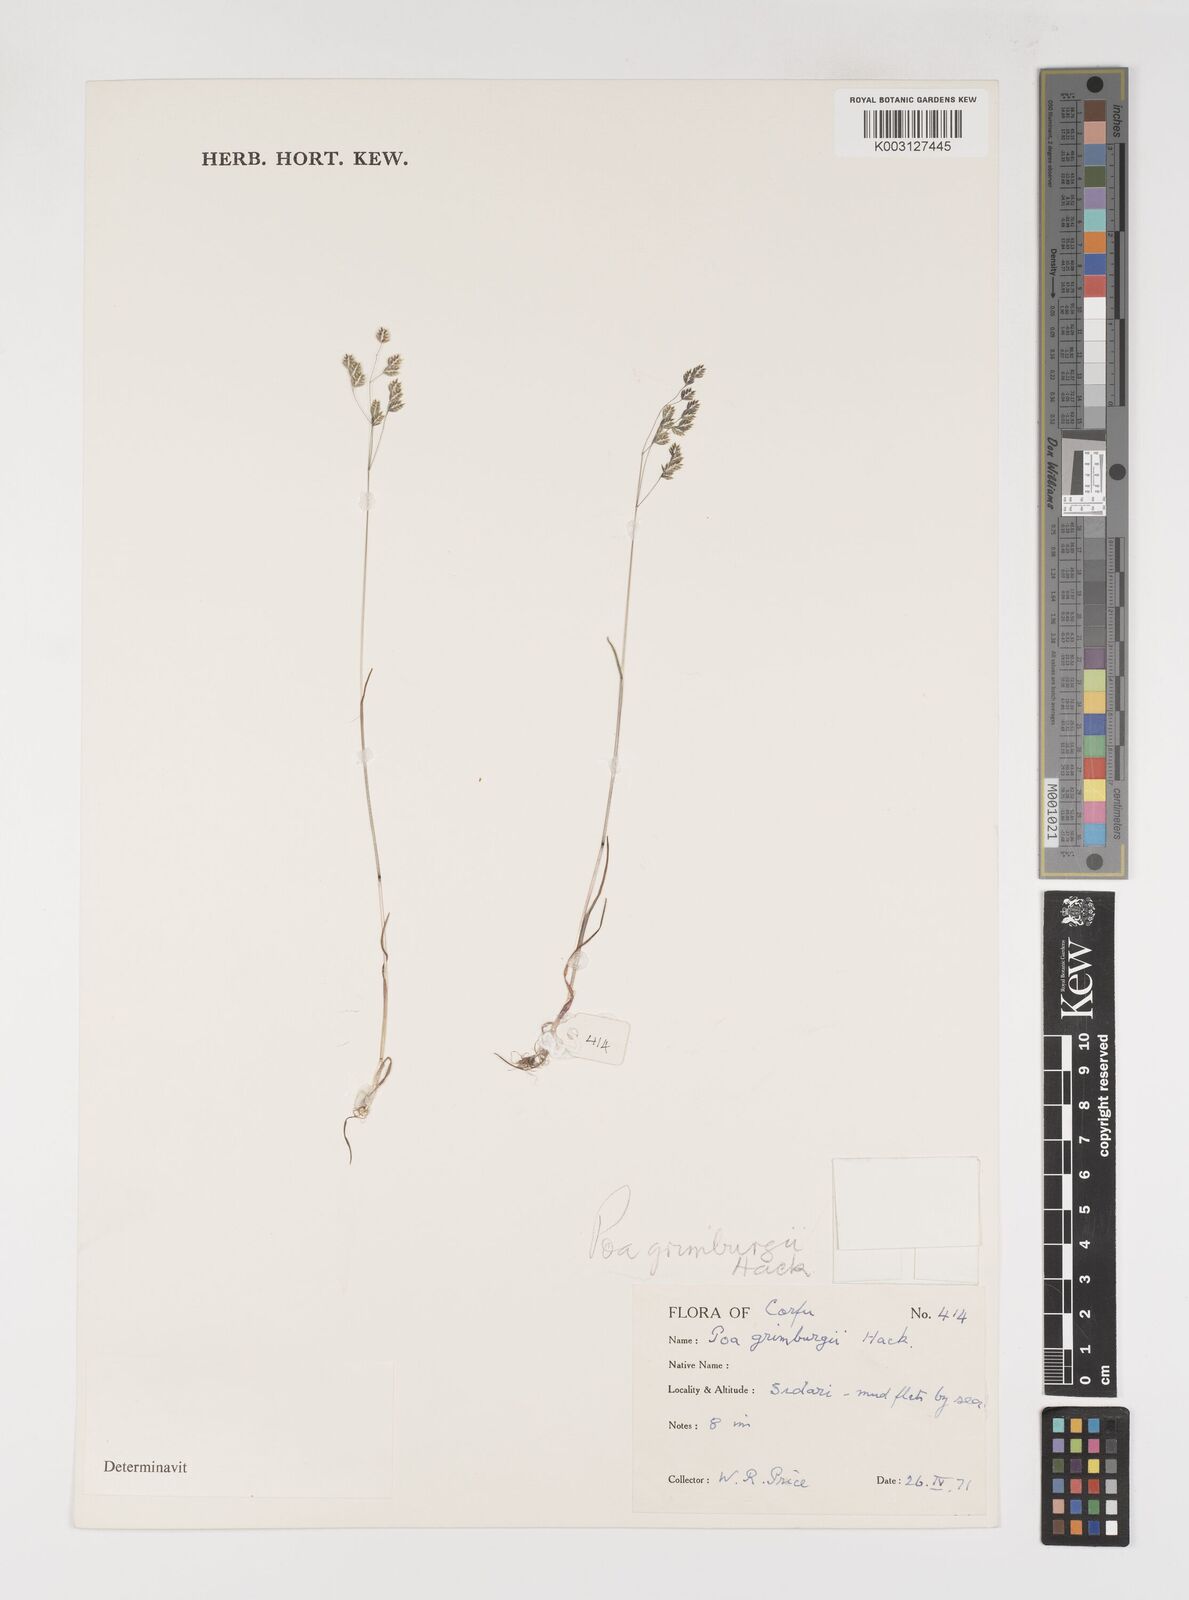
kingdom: Plantae
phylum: Tracheophyta
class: Liliopsida
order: Poales
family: Poaceae
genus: Poa
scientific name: Poa jubata
